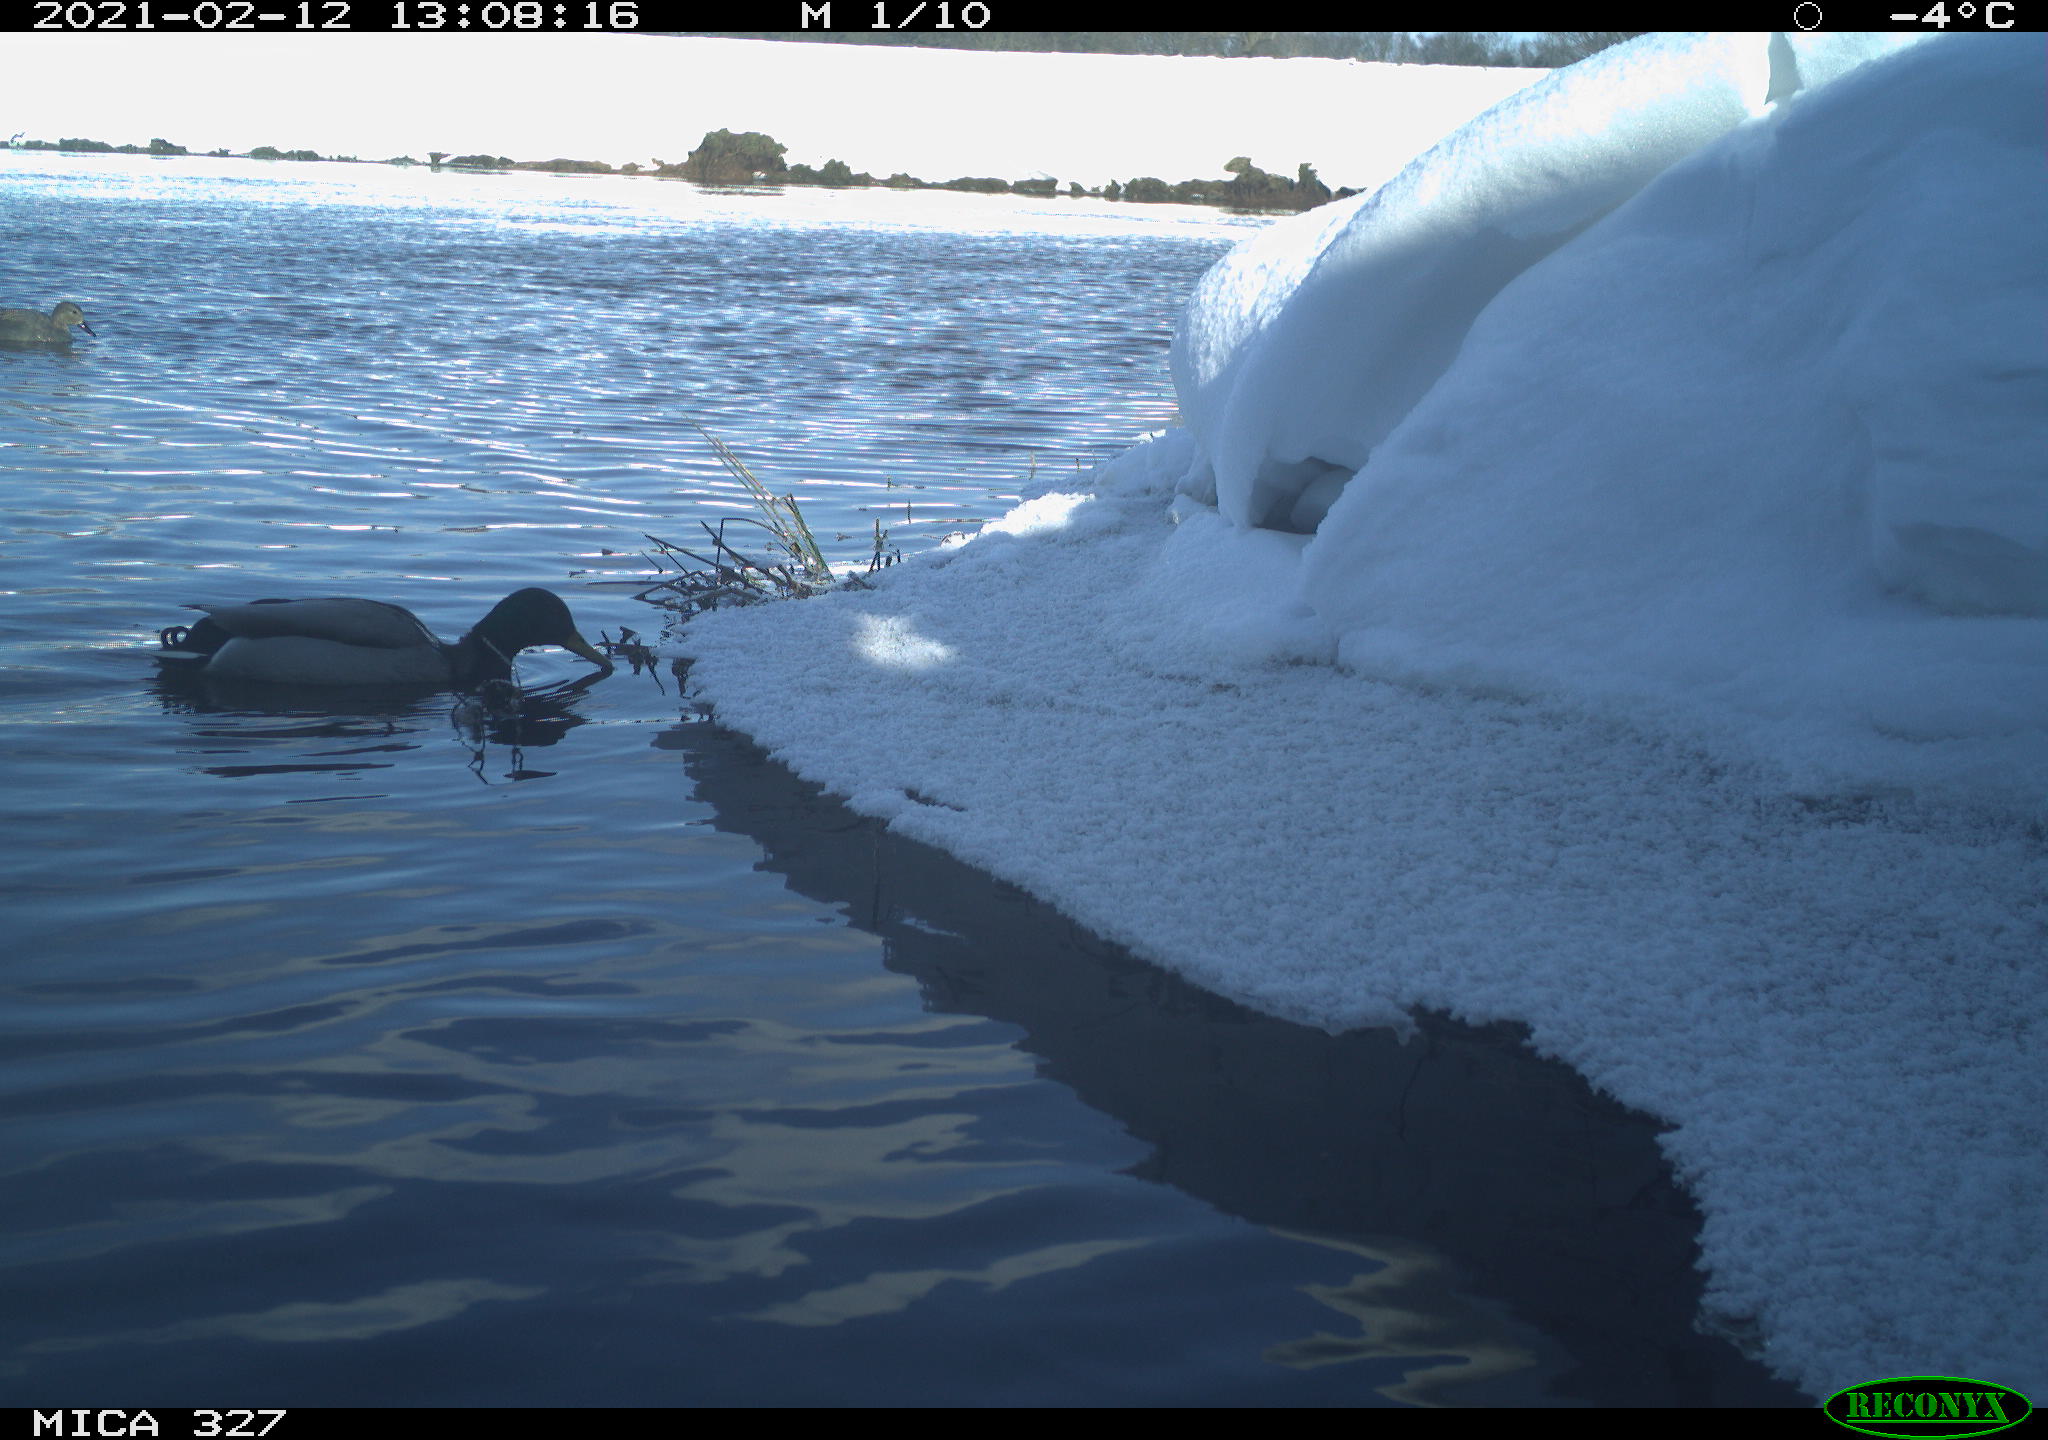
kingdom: Animalia
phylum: Chordata
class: Aves
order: Pelecaniformes
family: Ardeidae
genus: Ardea
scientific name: Ardea cinerea
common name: Grey heron
